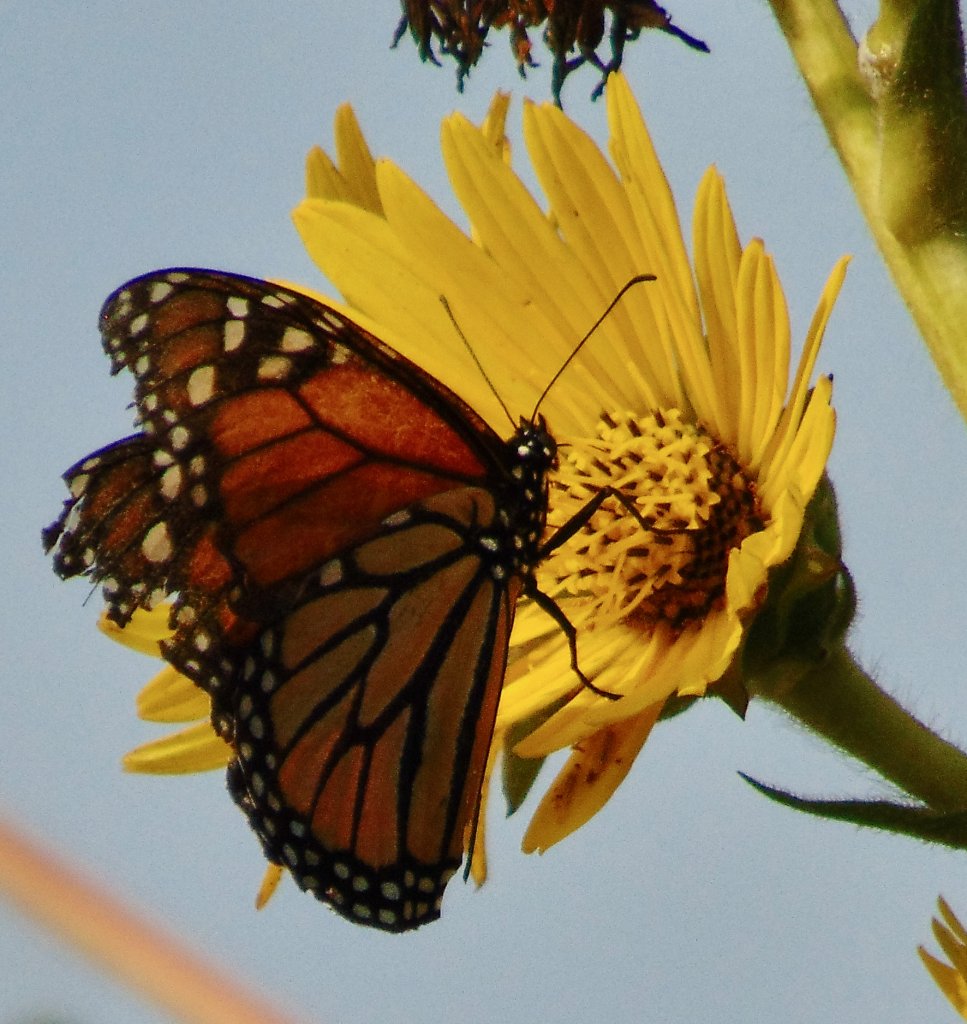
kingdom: Animalia
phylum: Arthropoda
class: Insecta
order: Lepidoptera
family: Nymphalidae
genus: Danaus
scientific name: Danaus plexippus
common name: Monarch
